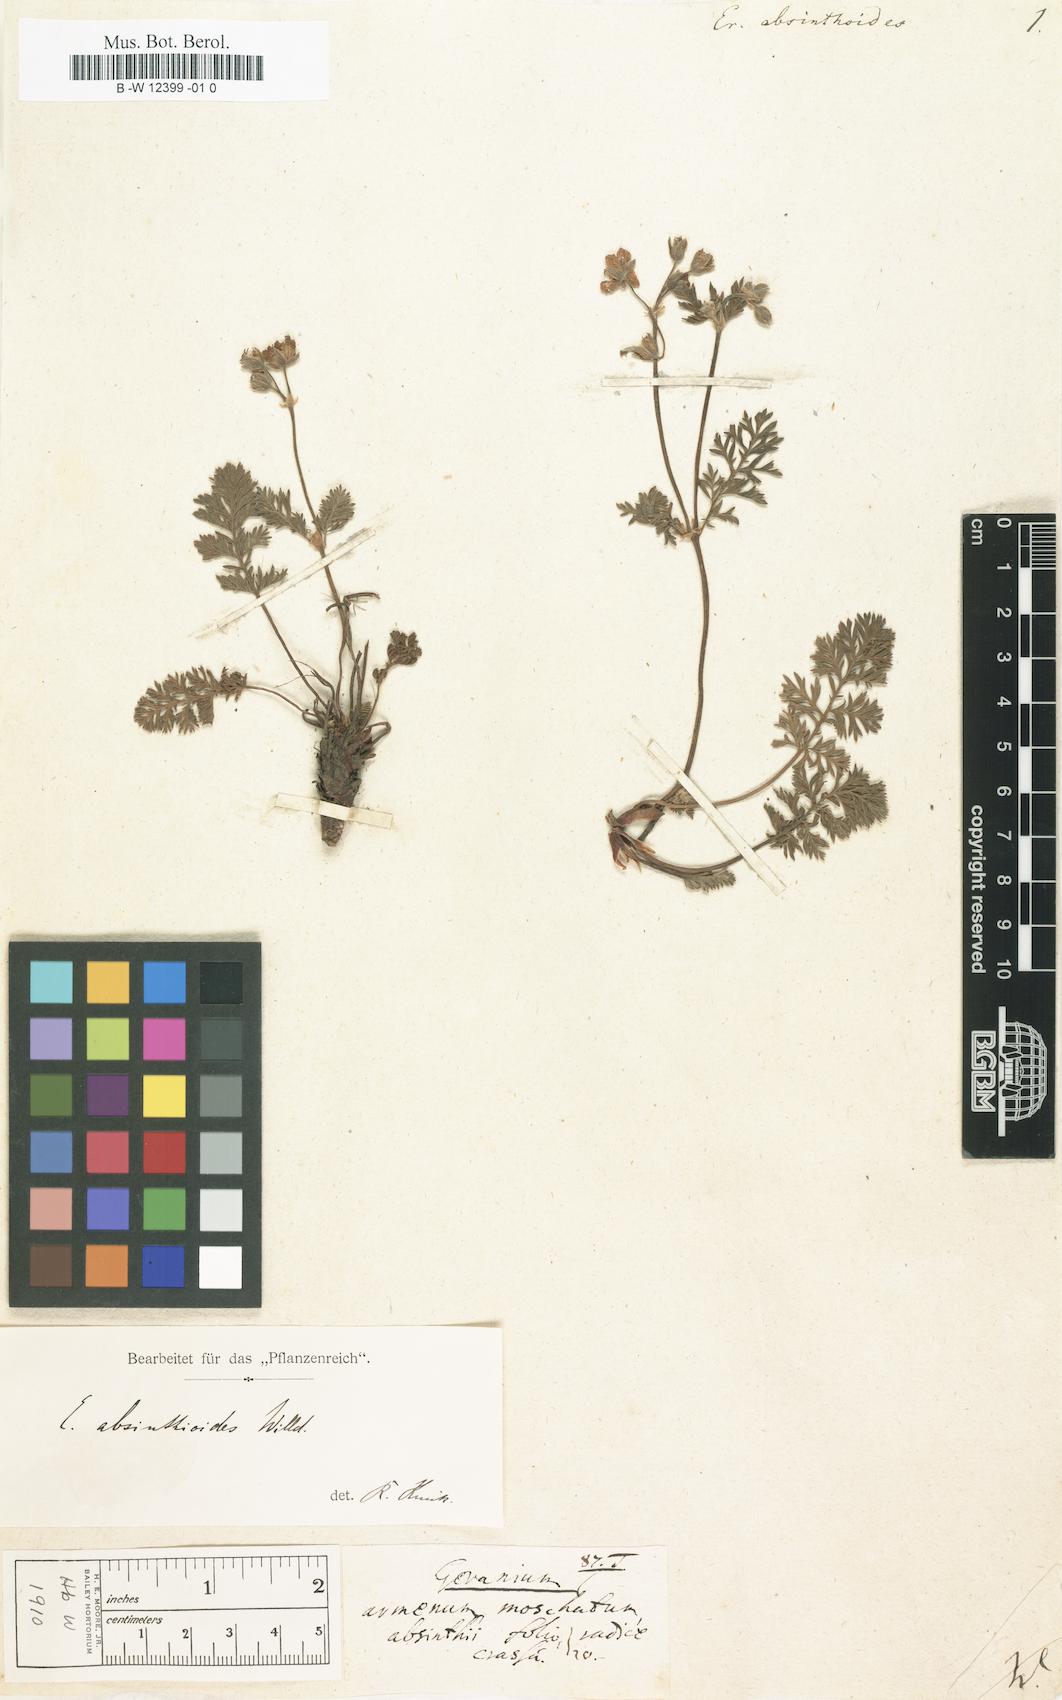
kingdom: Plantae
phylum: Tracheophyta
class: Magnoliopsida
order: Geraniales
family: Geraniaceae
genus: Erodium
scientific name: Erodium absinthoides
